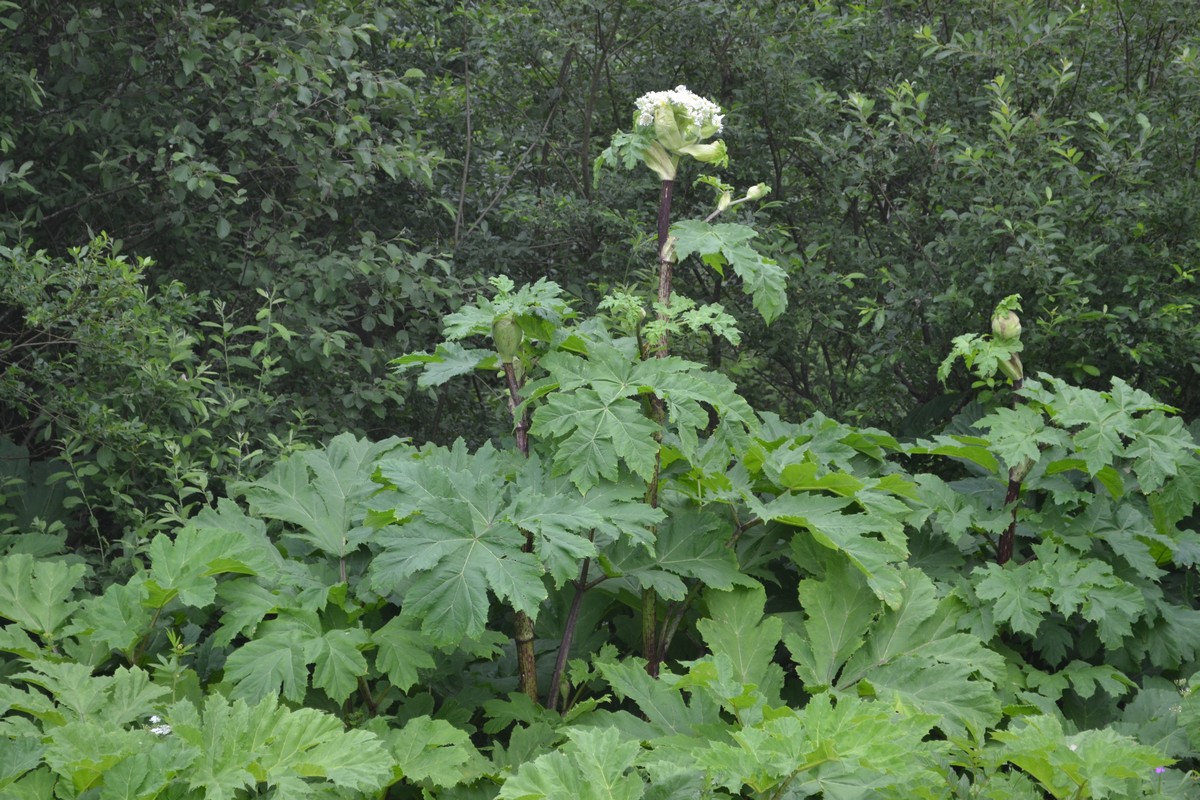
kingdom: Plantae
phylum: Tracheophyta
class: Magnoliopsida
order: Apiales
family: Apiaceae
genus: Heracleum
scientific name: Heracleum sosnowskyi
